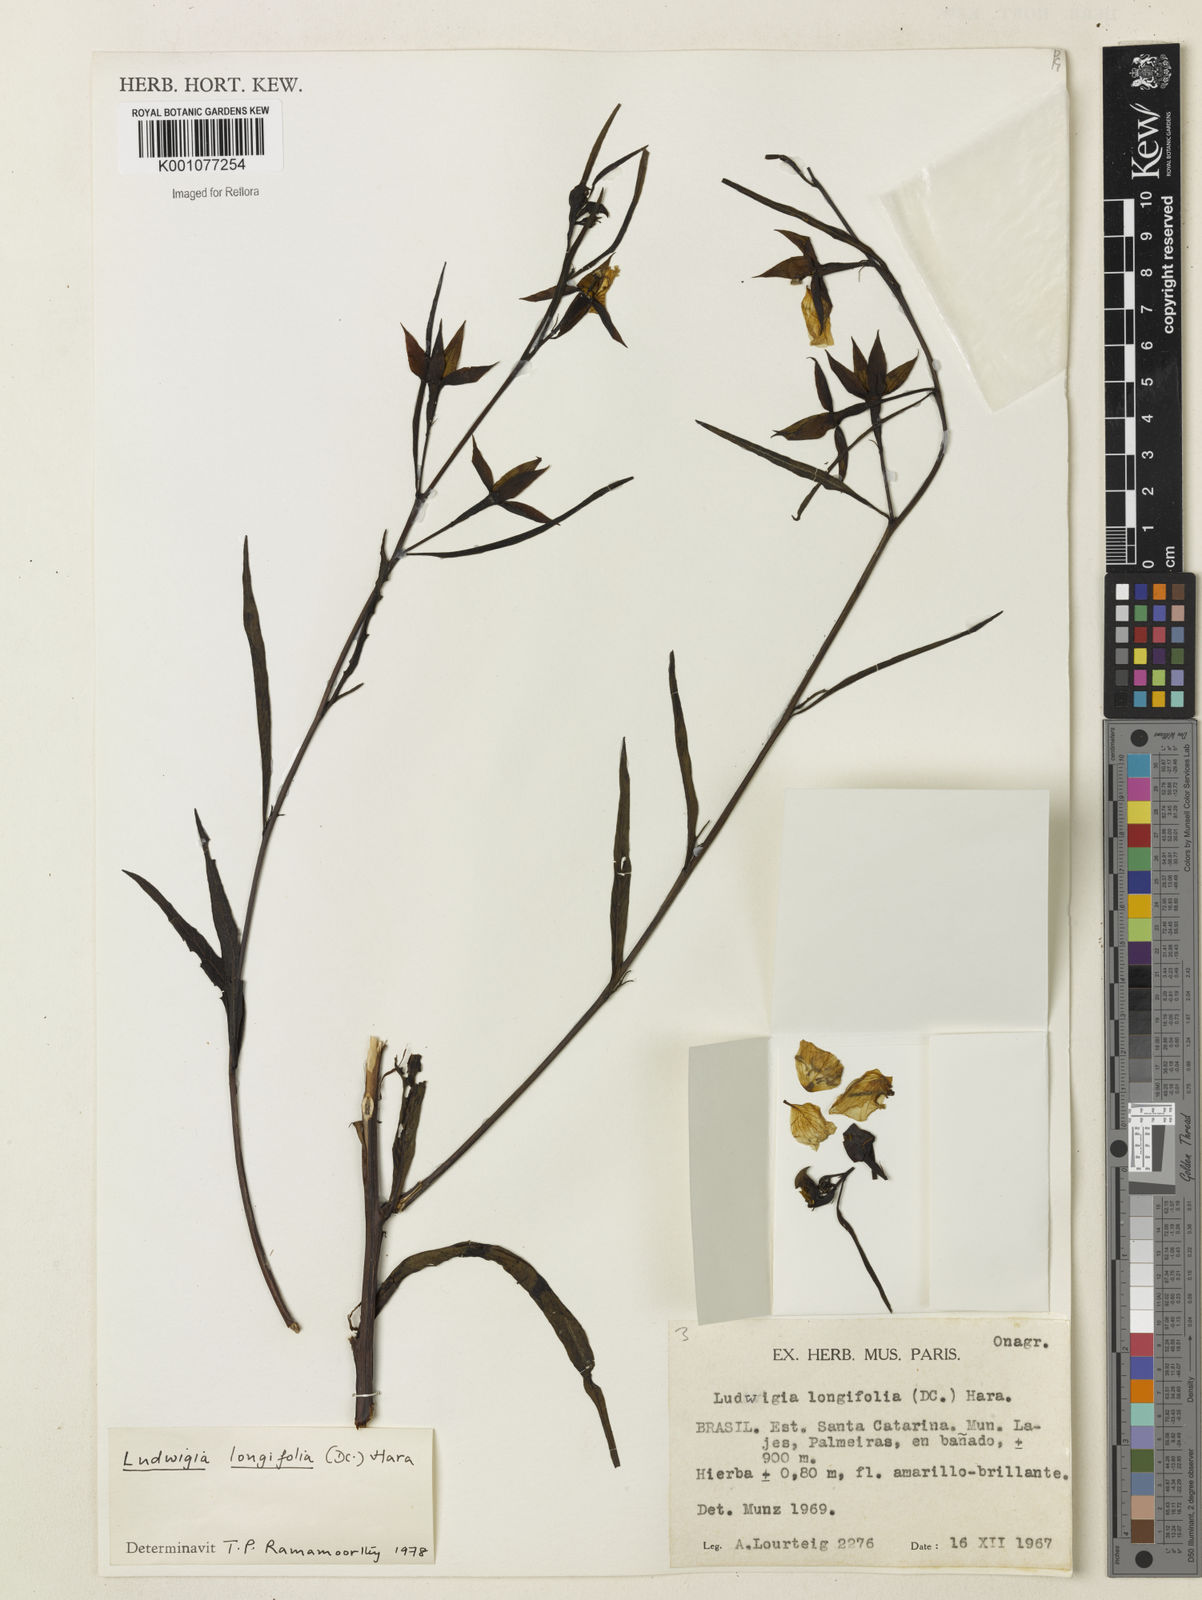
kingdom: Plantae
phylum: Tracheophyta
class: Magnoliopsida
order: Myrtales
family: Onagraceae
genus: Ludwigia
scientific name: Ludwigia longifolia
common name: Longleaf primrose-willow
